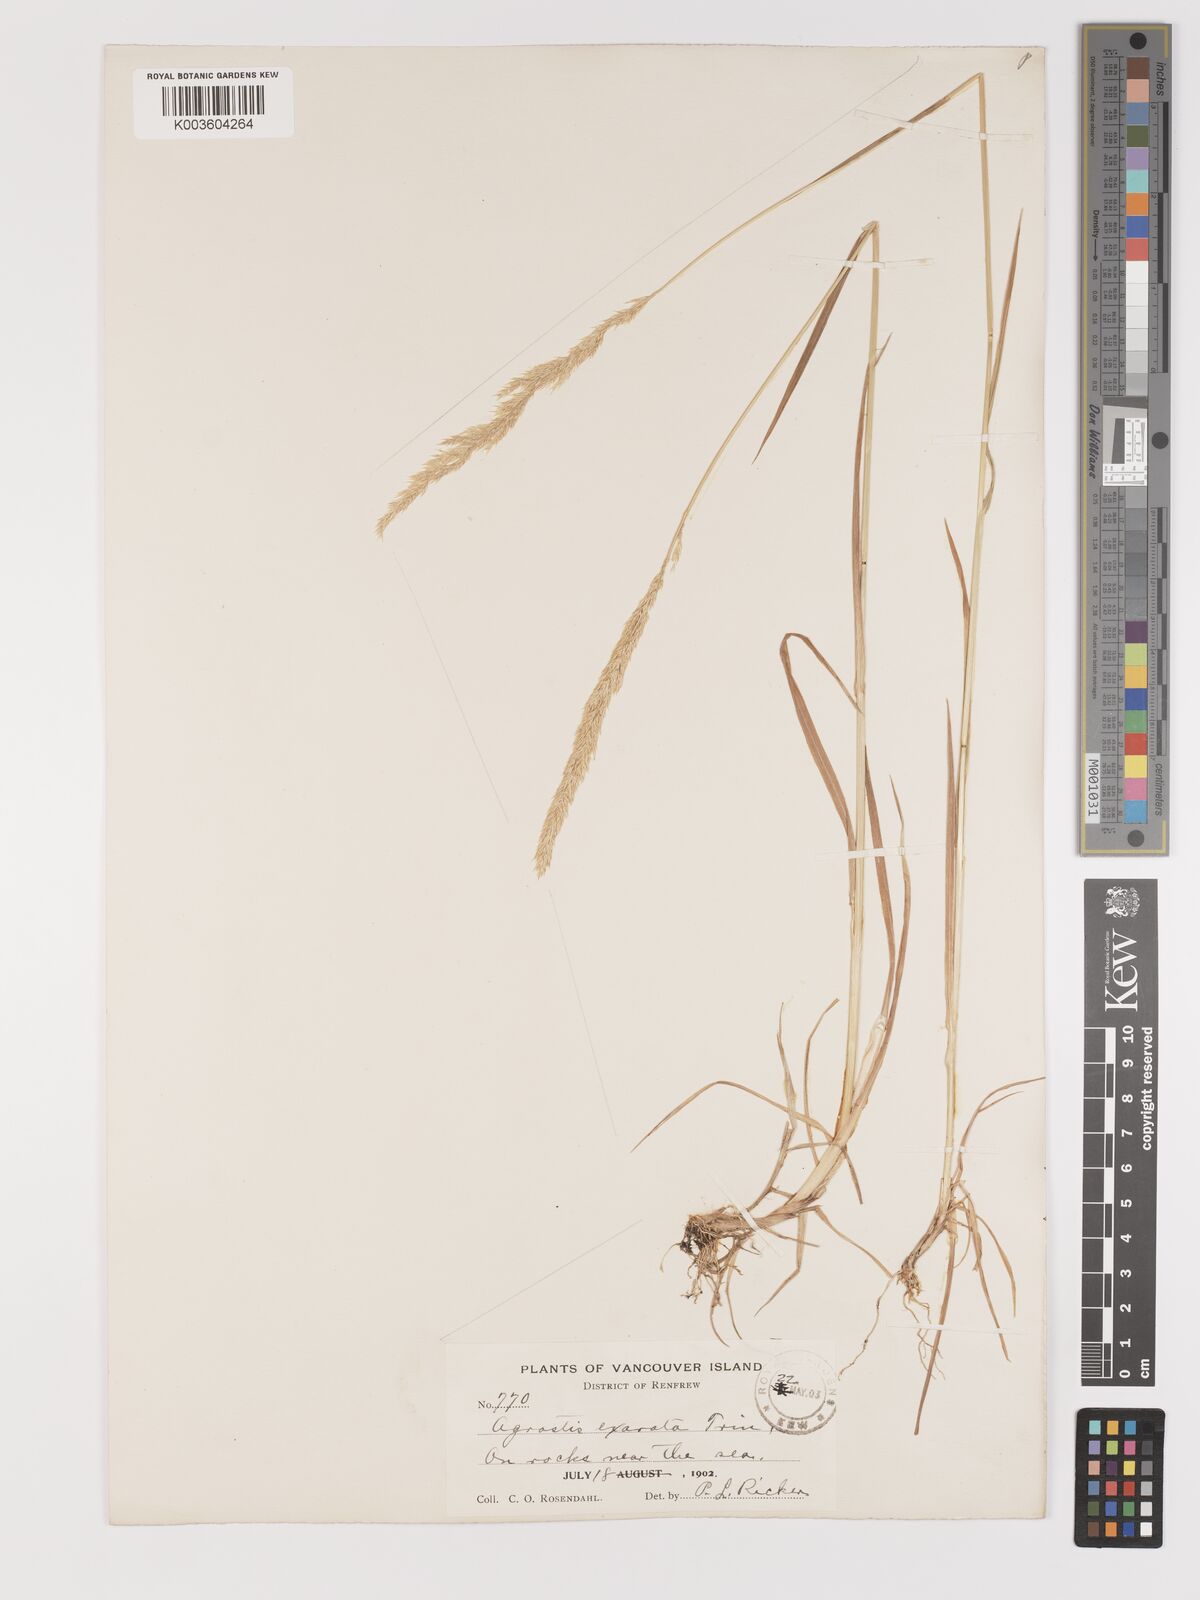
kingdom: Plantae
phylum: Tracheophyta
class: Liliopsida
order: Poales
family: Poaceae
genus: Agrostis
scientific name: Agrostis exarata
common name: Spike bent
